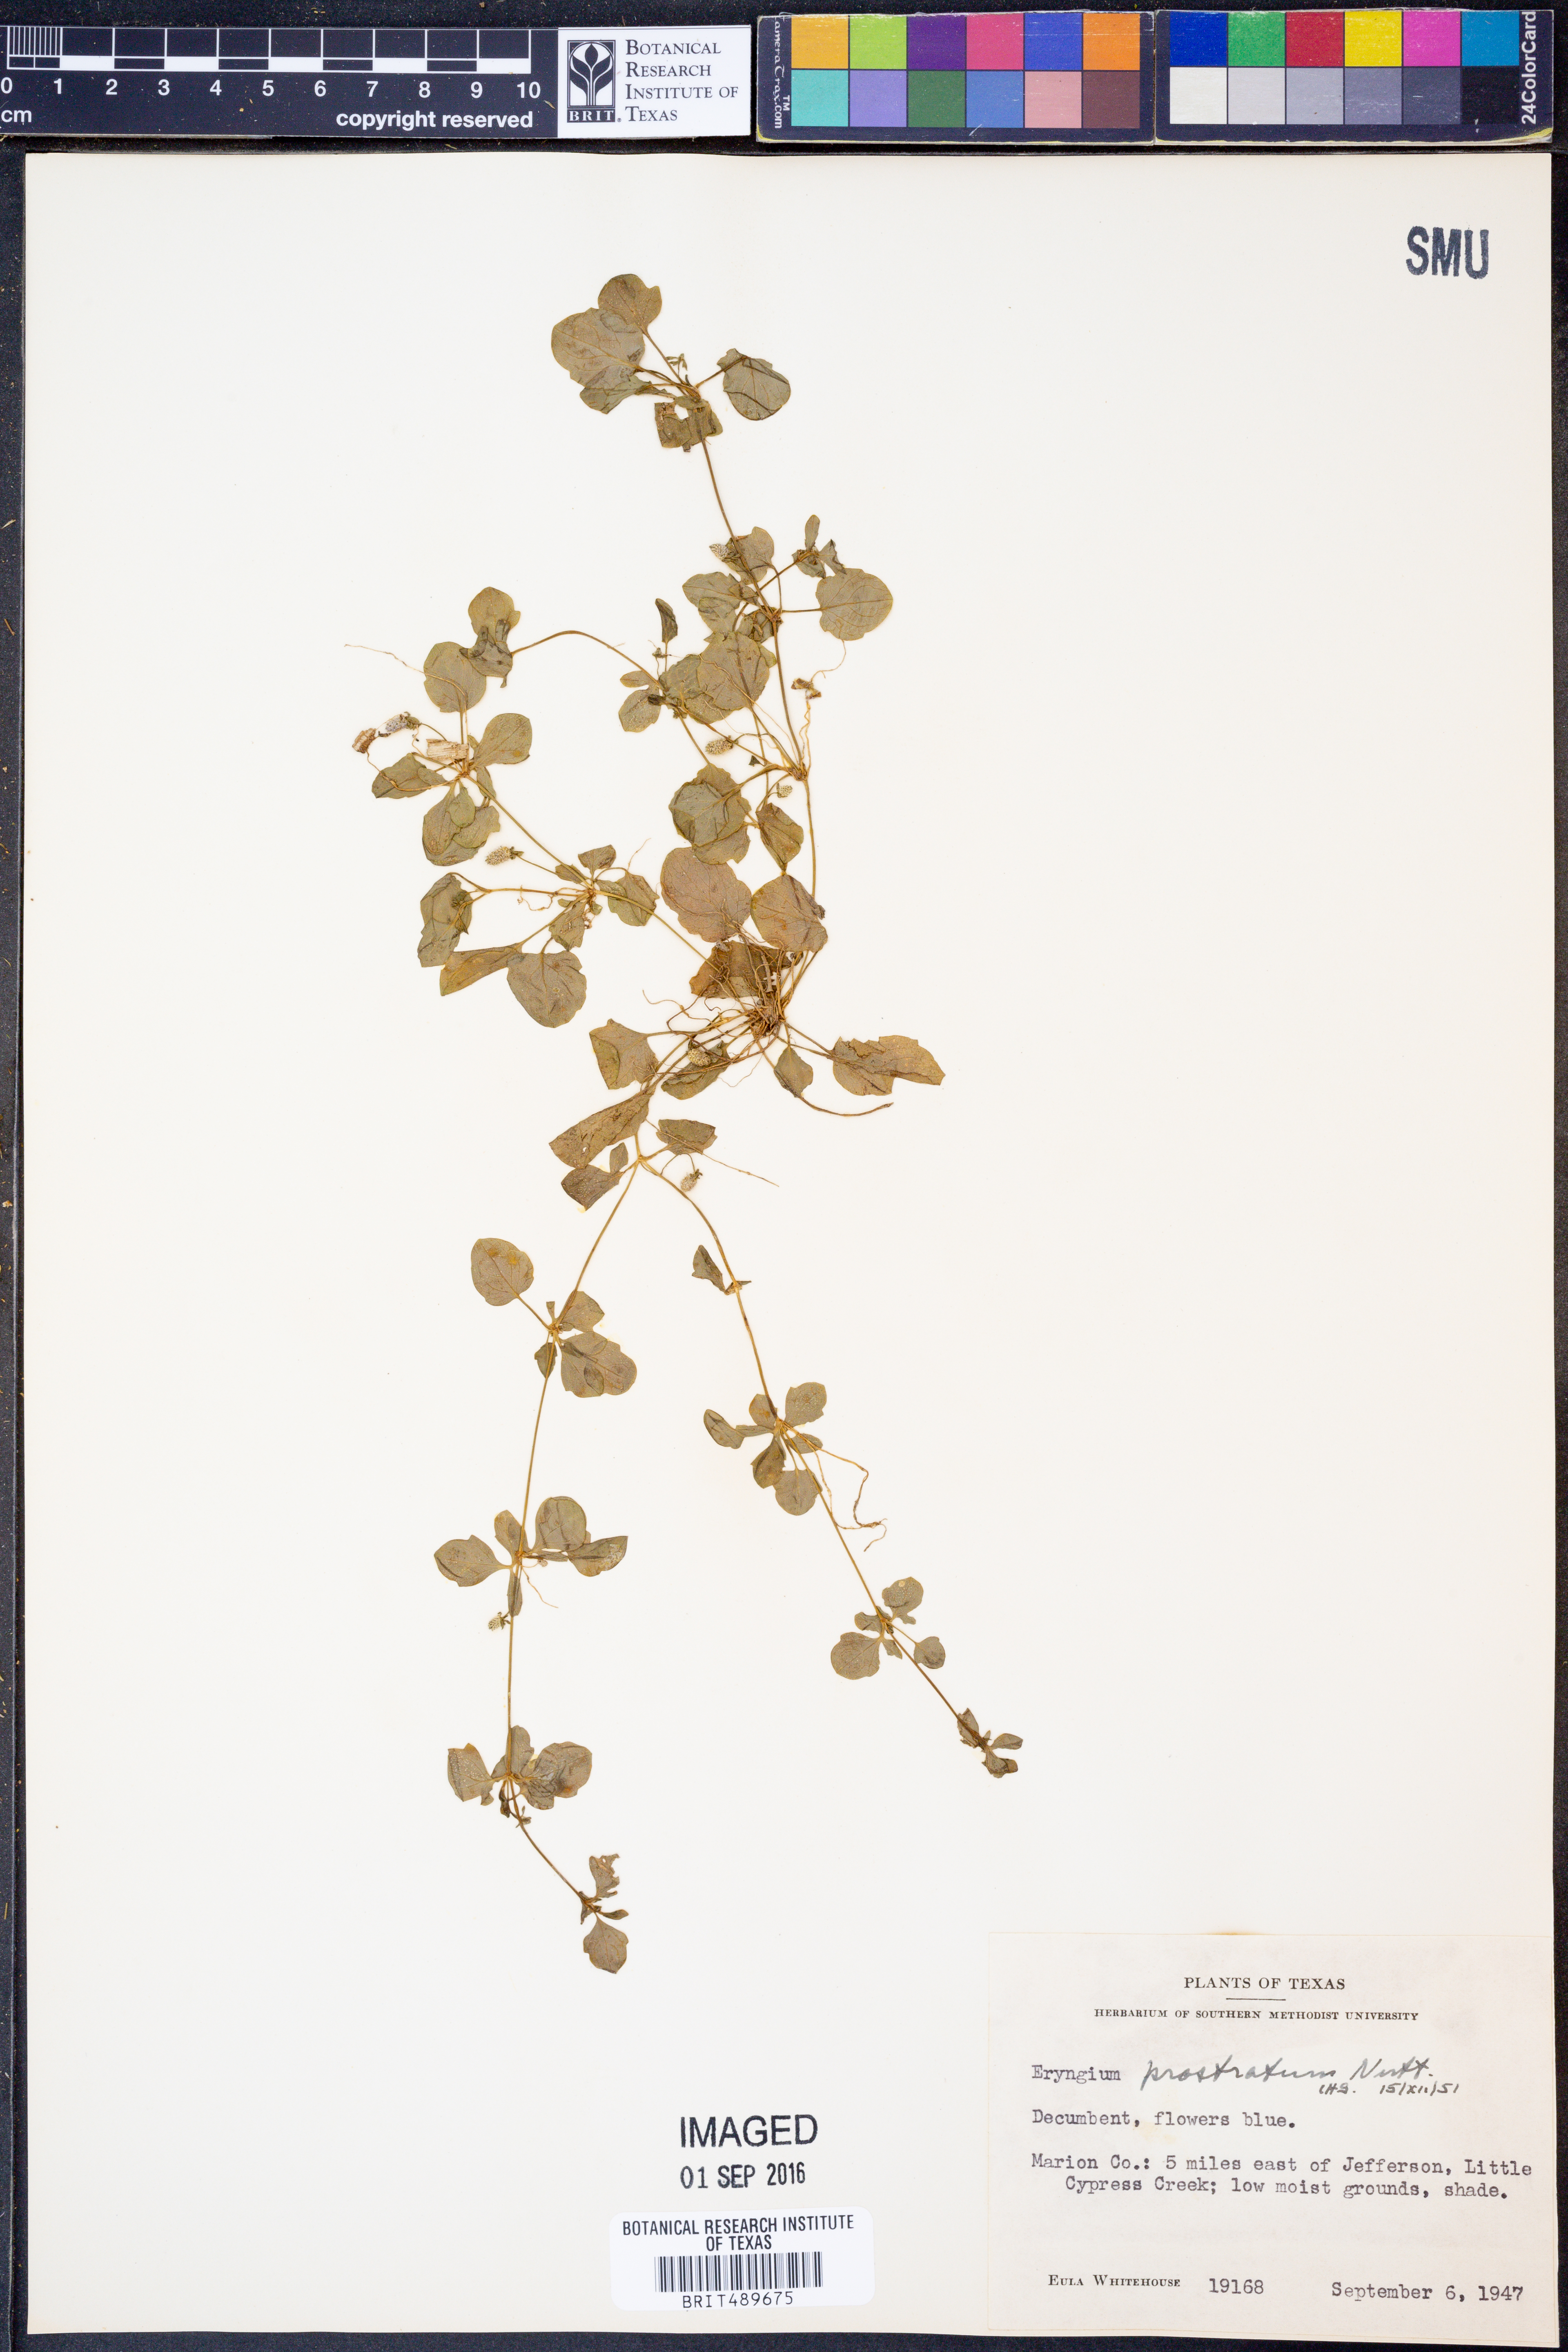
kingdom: Plantae
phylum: Tracheophyta
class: Magnoliopsida
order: Apiales
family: Apiaceae
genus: Eryngium
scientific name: Eryngium prostratum
